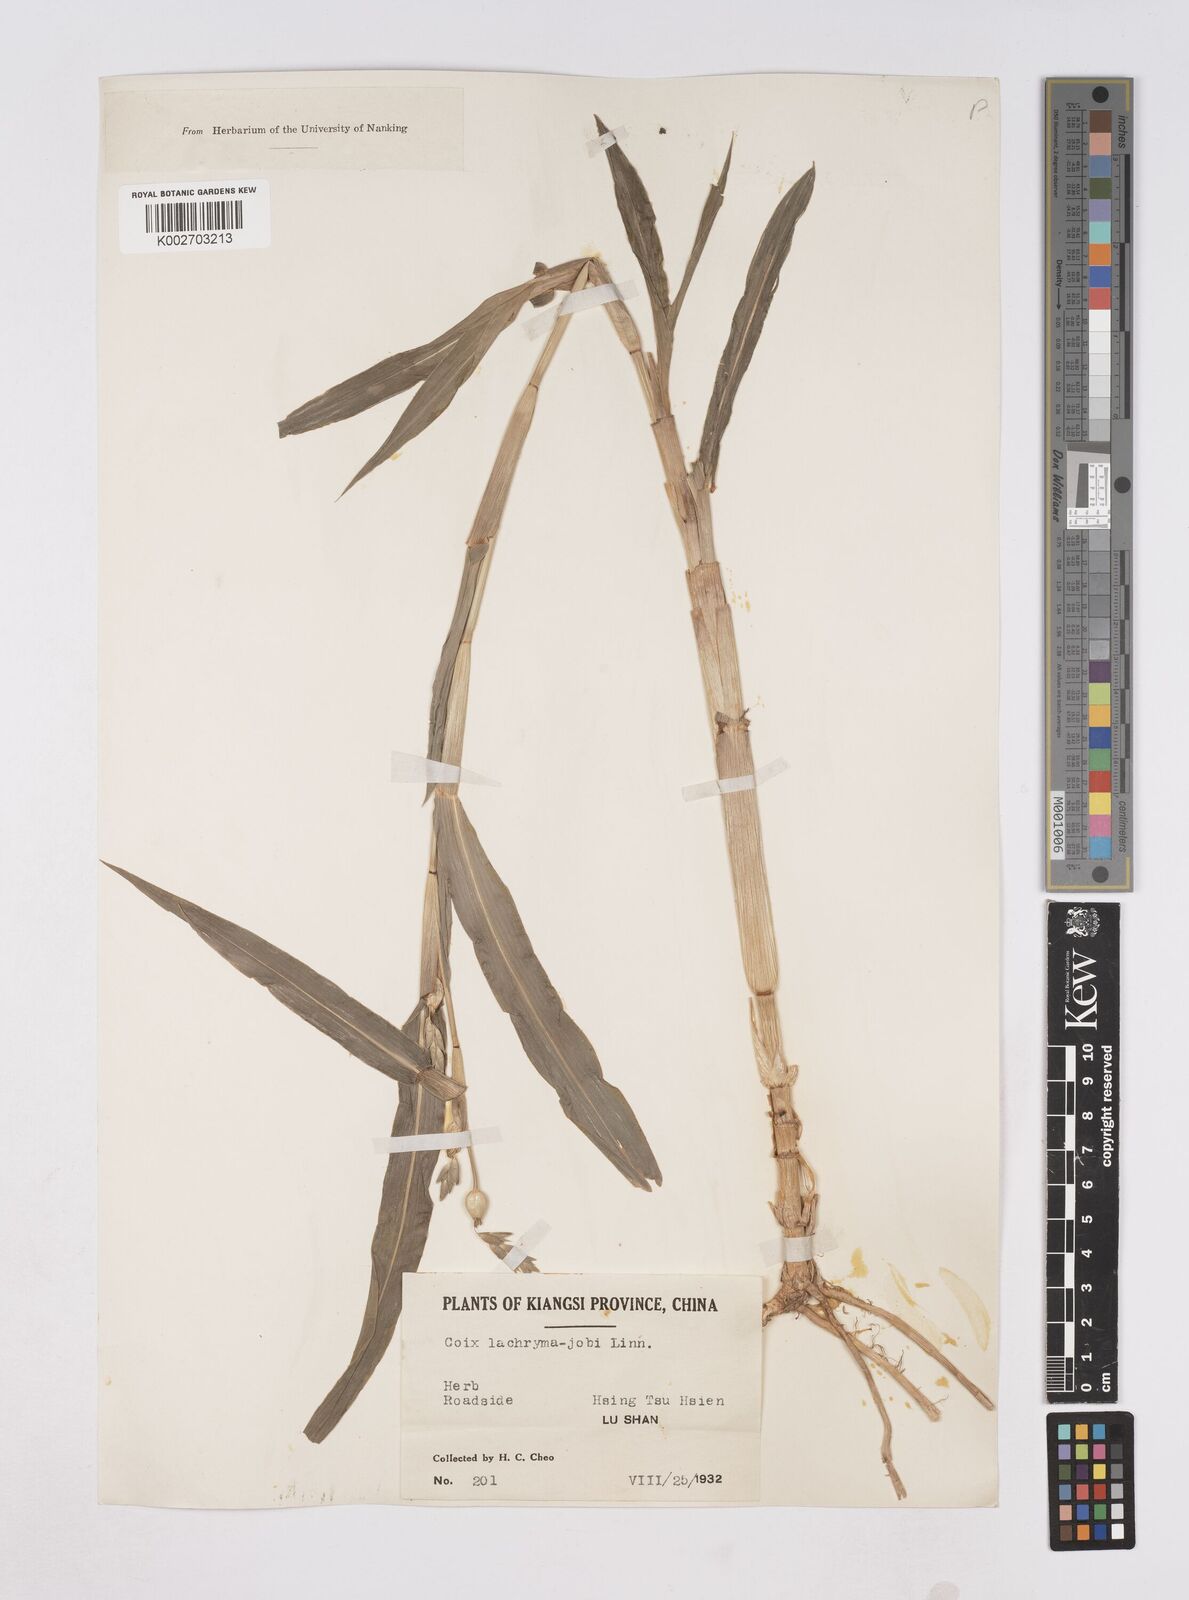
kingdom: Plantae
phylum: Tracheophyta
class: Liliopsida
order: Poales
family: Poaceae
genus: Coix
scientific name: Coix lacryma-jobi
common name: Job's tears
